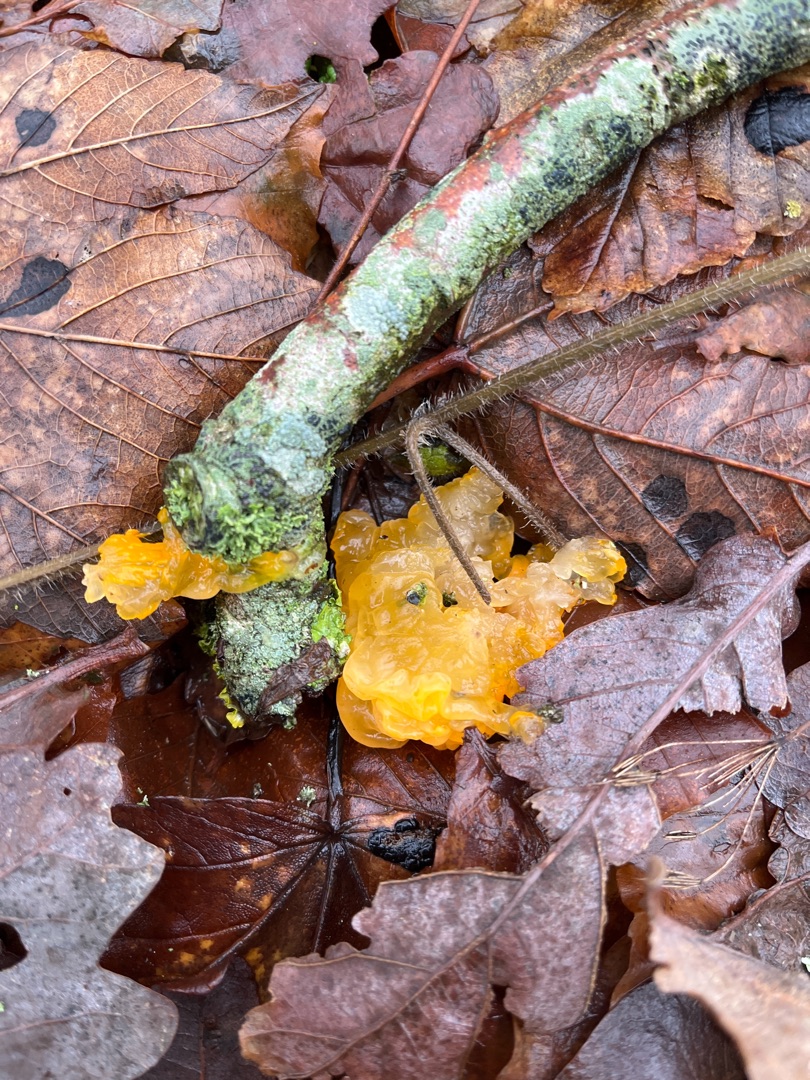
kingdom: Fungi
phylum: Basidiomycota
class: Tremellomycetes
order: Tremellales
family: Tremellaceae
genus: Tremella
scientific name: Tremella mesenterica
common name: Gul bævresvamp
